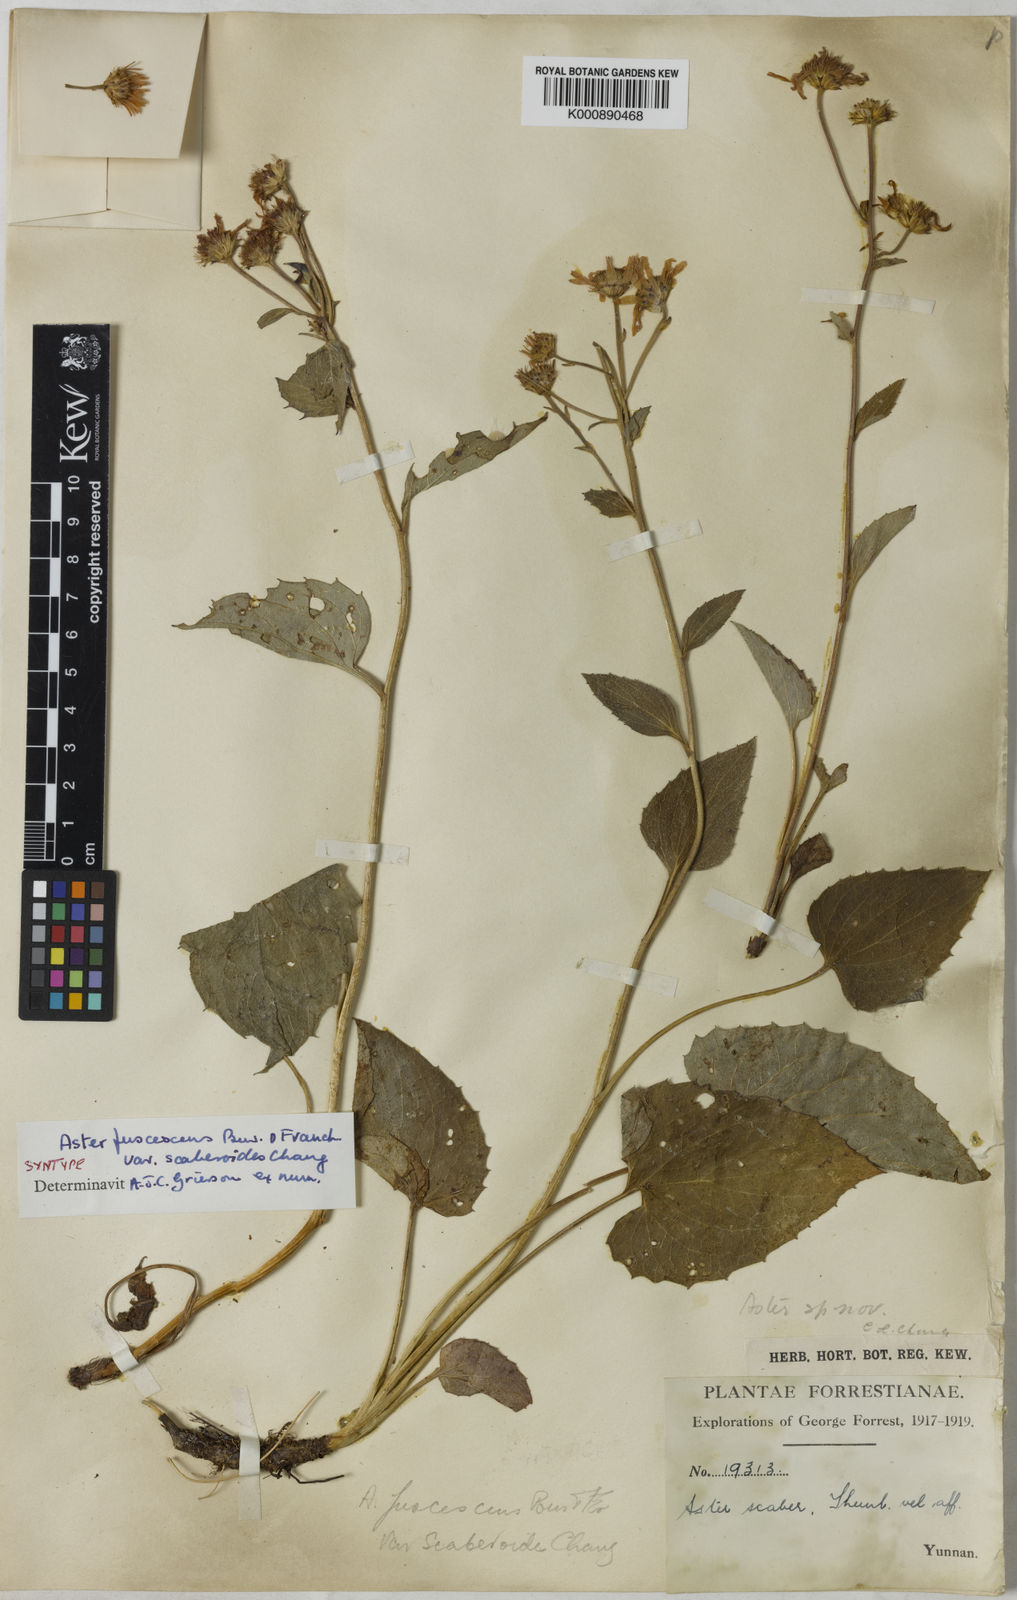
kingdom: Plantae
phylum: Tracheophyta
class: Magnoliopsida
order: Asterales
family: Asteraceae
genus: Griersonia
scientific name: Griersonia fuscescens
